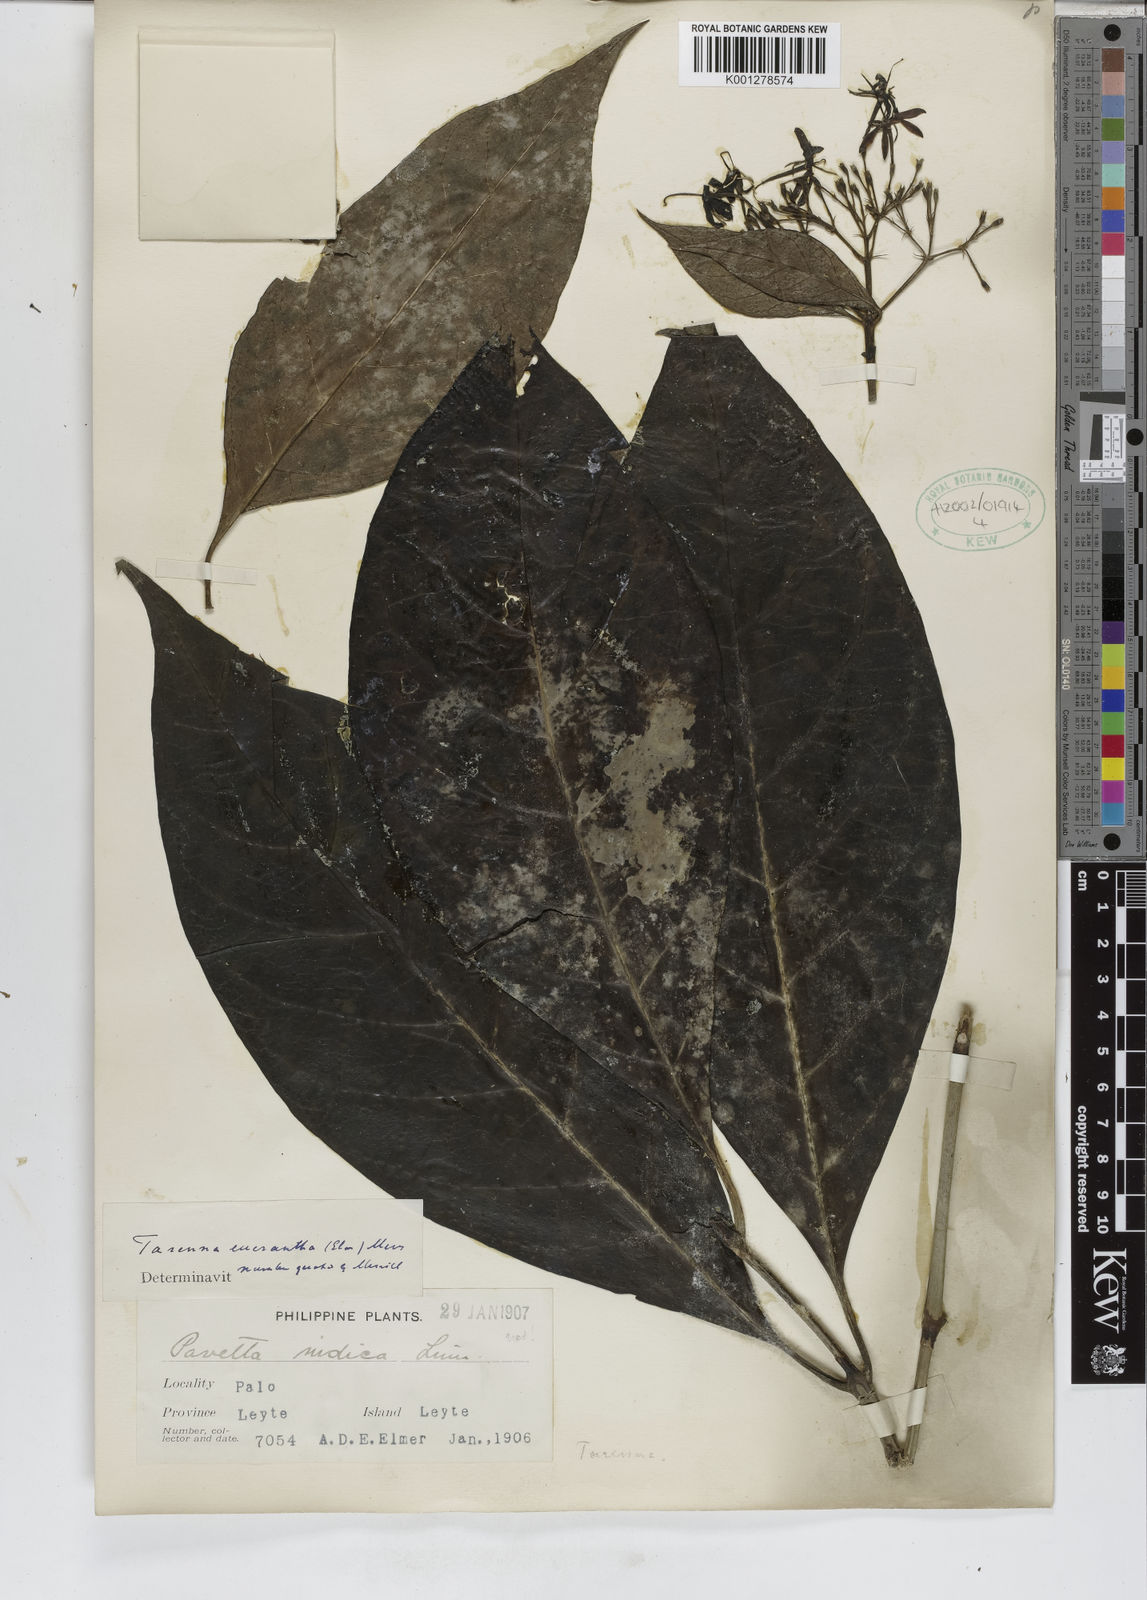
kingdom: Plantae
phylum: Tracheophyta
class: Magnoliopsida
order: Gentianales
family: Rubiaceae
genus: Tarenna
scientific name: Tarenna eucrantha
